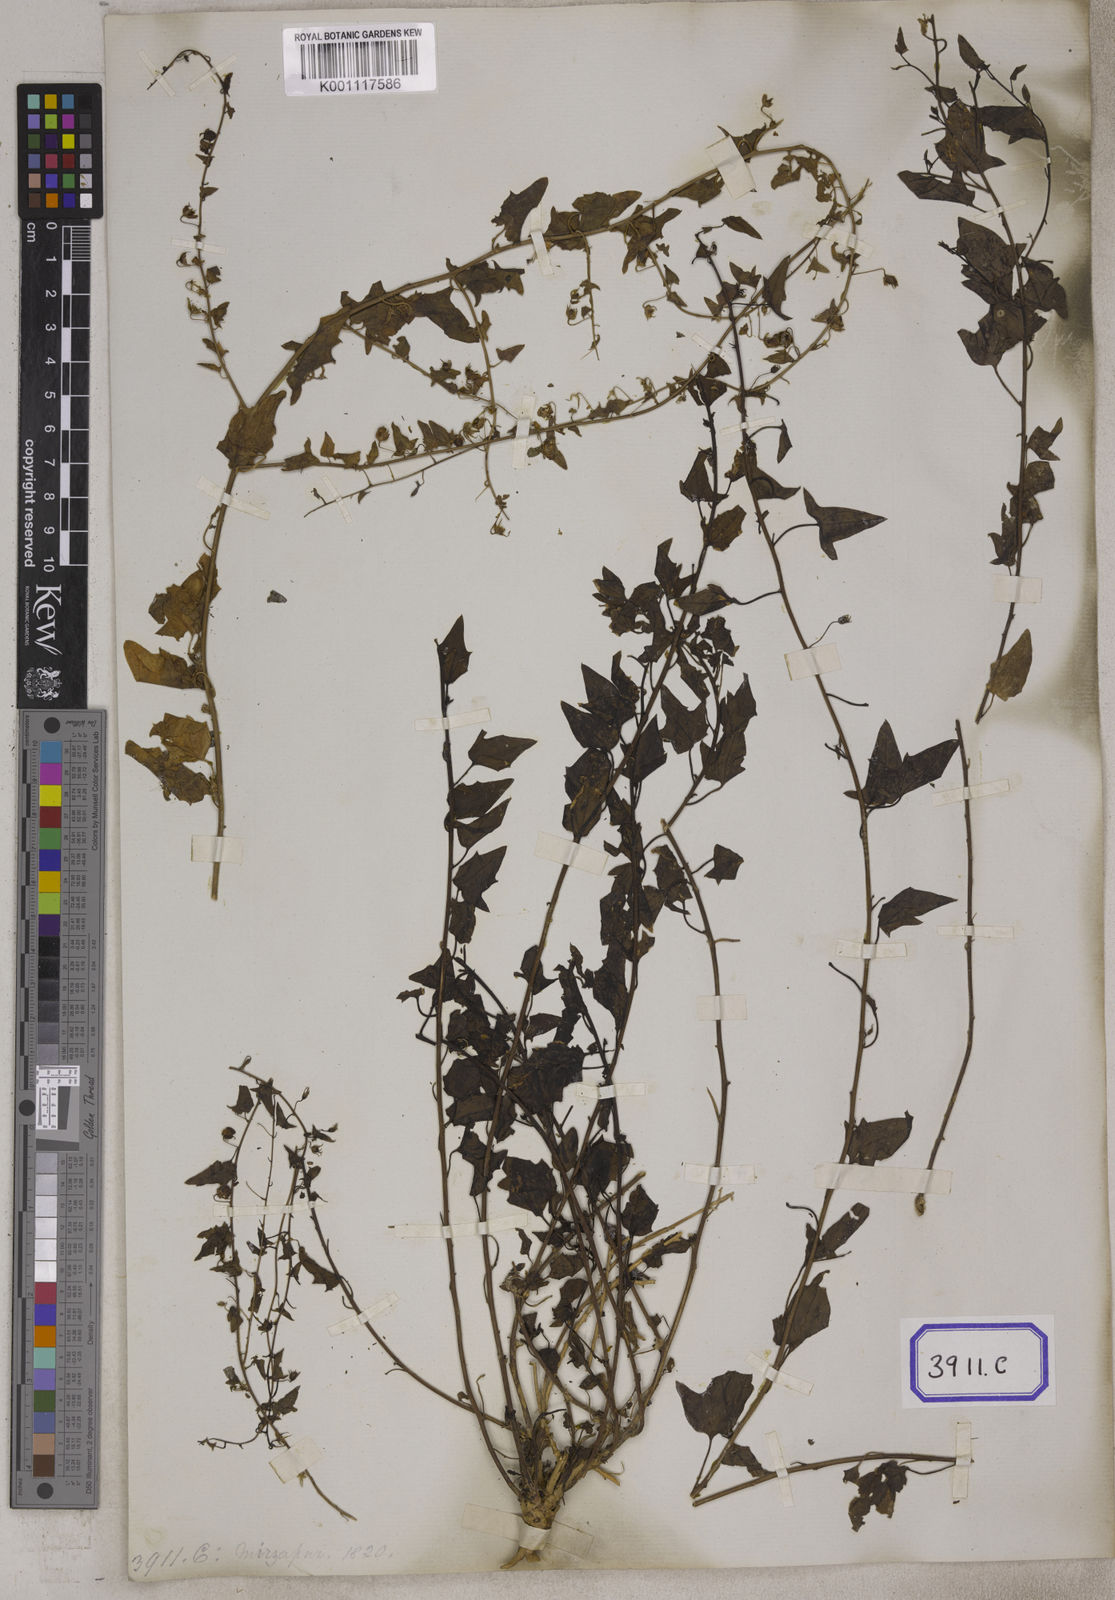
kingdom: Plantae
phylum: Tracheophyta
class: Magnoliopsida
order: Lamiales
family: Plantaginaceae
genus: Nanorrhinum
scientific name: Nanorrhinum ramosissimum
